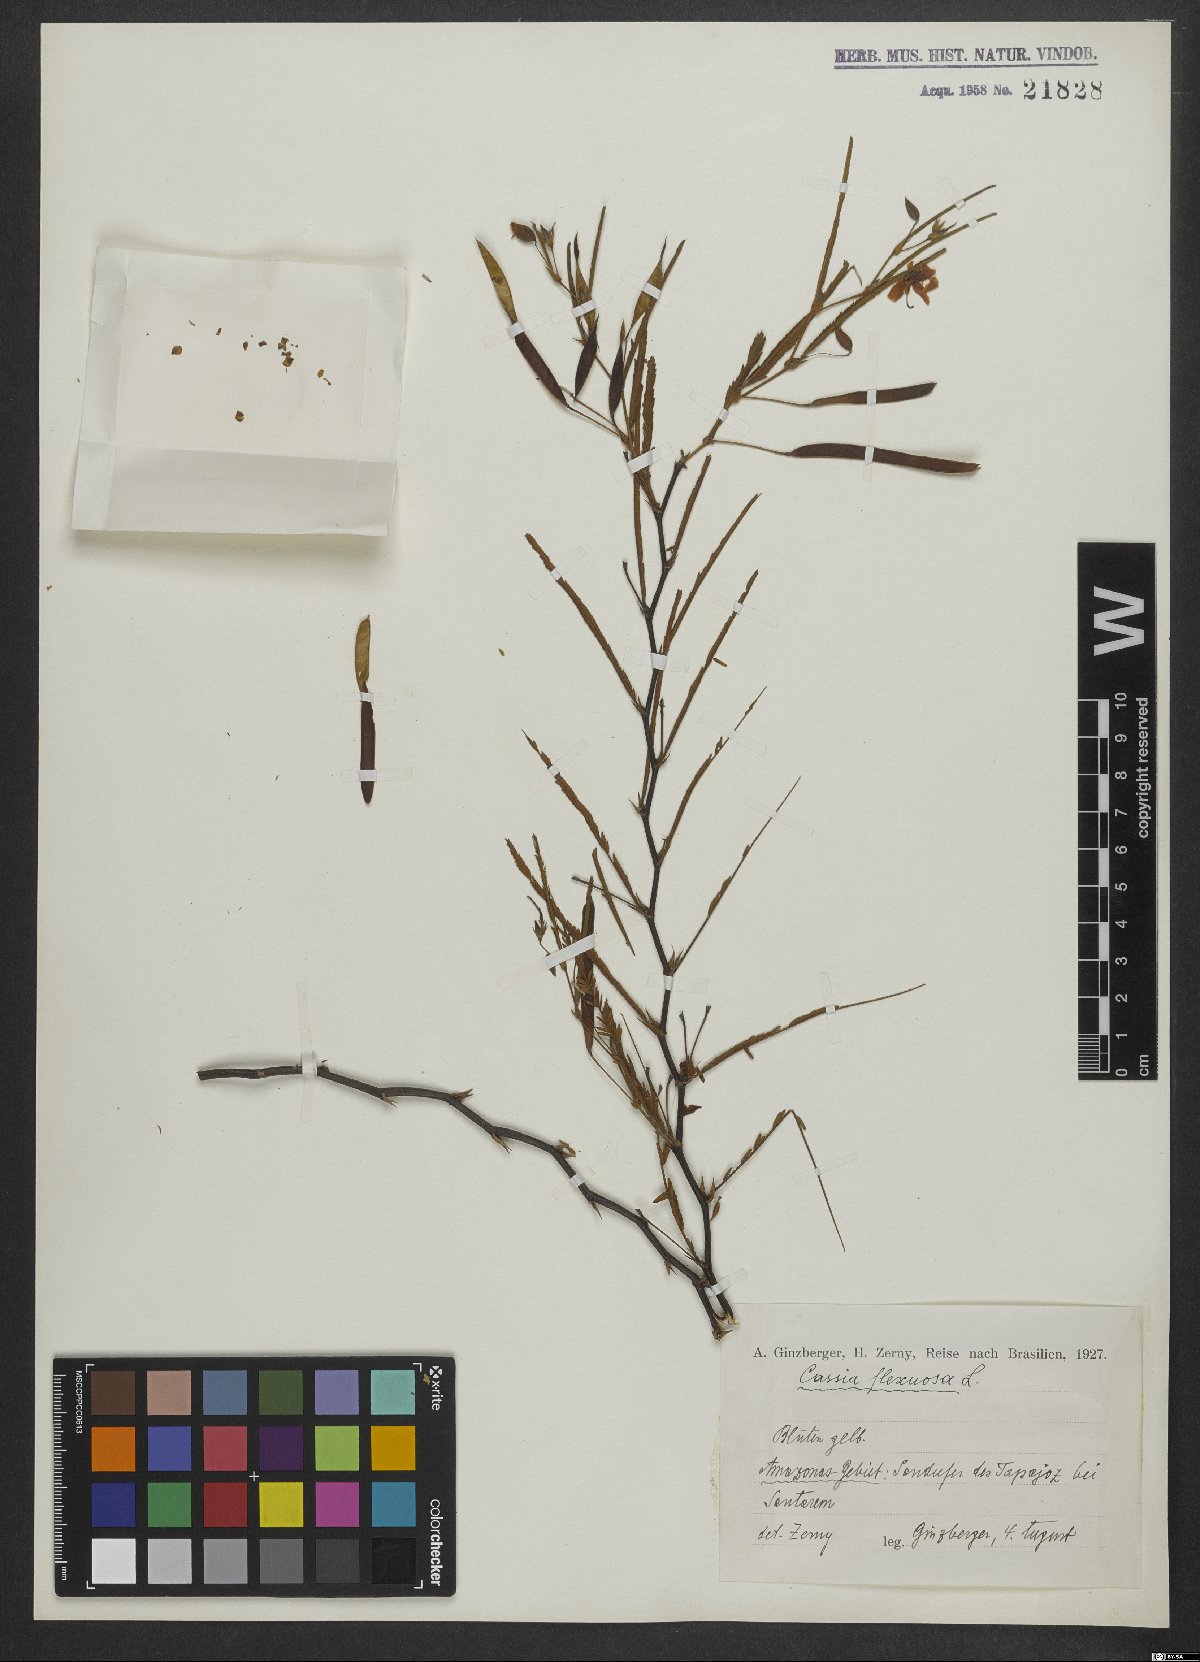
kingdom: Plantae
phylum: Tracheophyta
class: Magnoliopsida
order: Fabales
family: Fabaceae
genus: Chamaecrista
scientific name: Chamaecrista flexuosa
